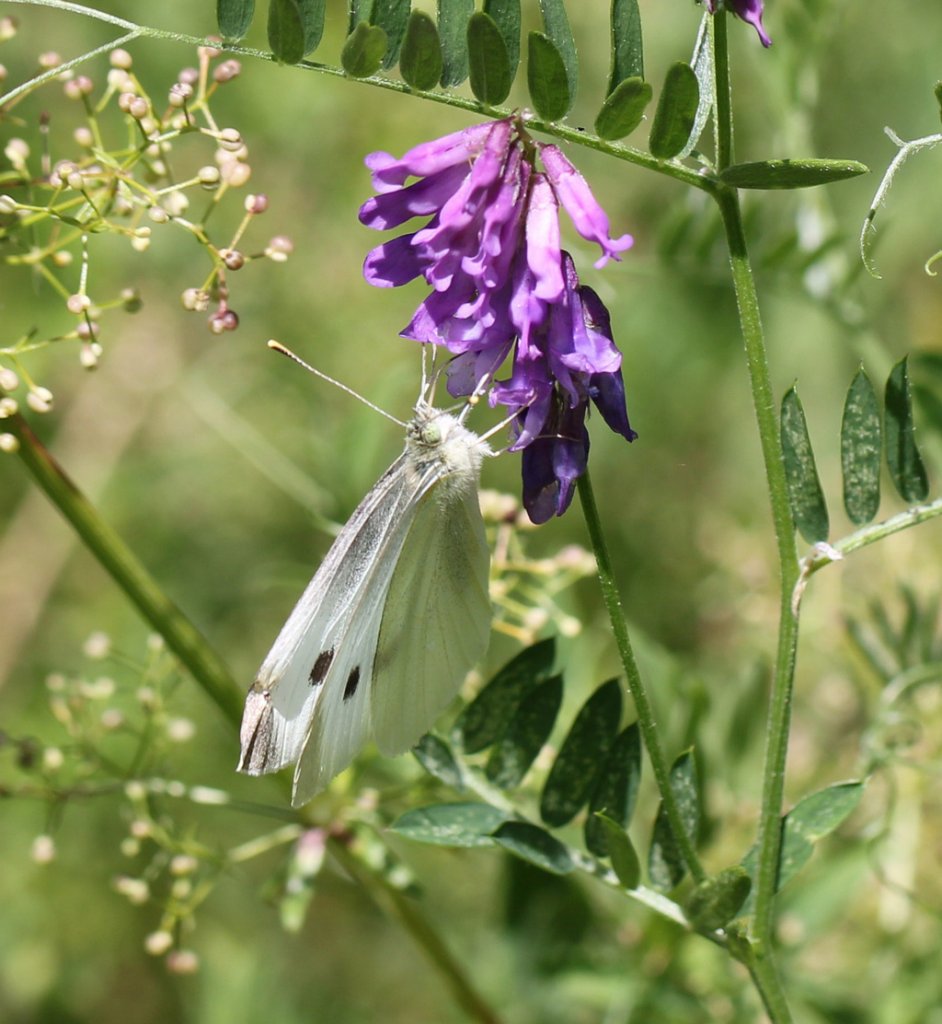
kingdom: Animalia
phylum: Arthropoda
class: Insecta
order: Lepidoptera
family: Pieridae
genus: Pieris
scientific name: Pieris rapae
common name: Cabbage White
